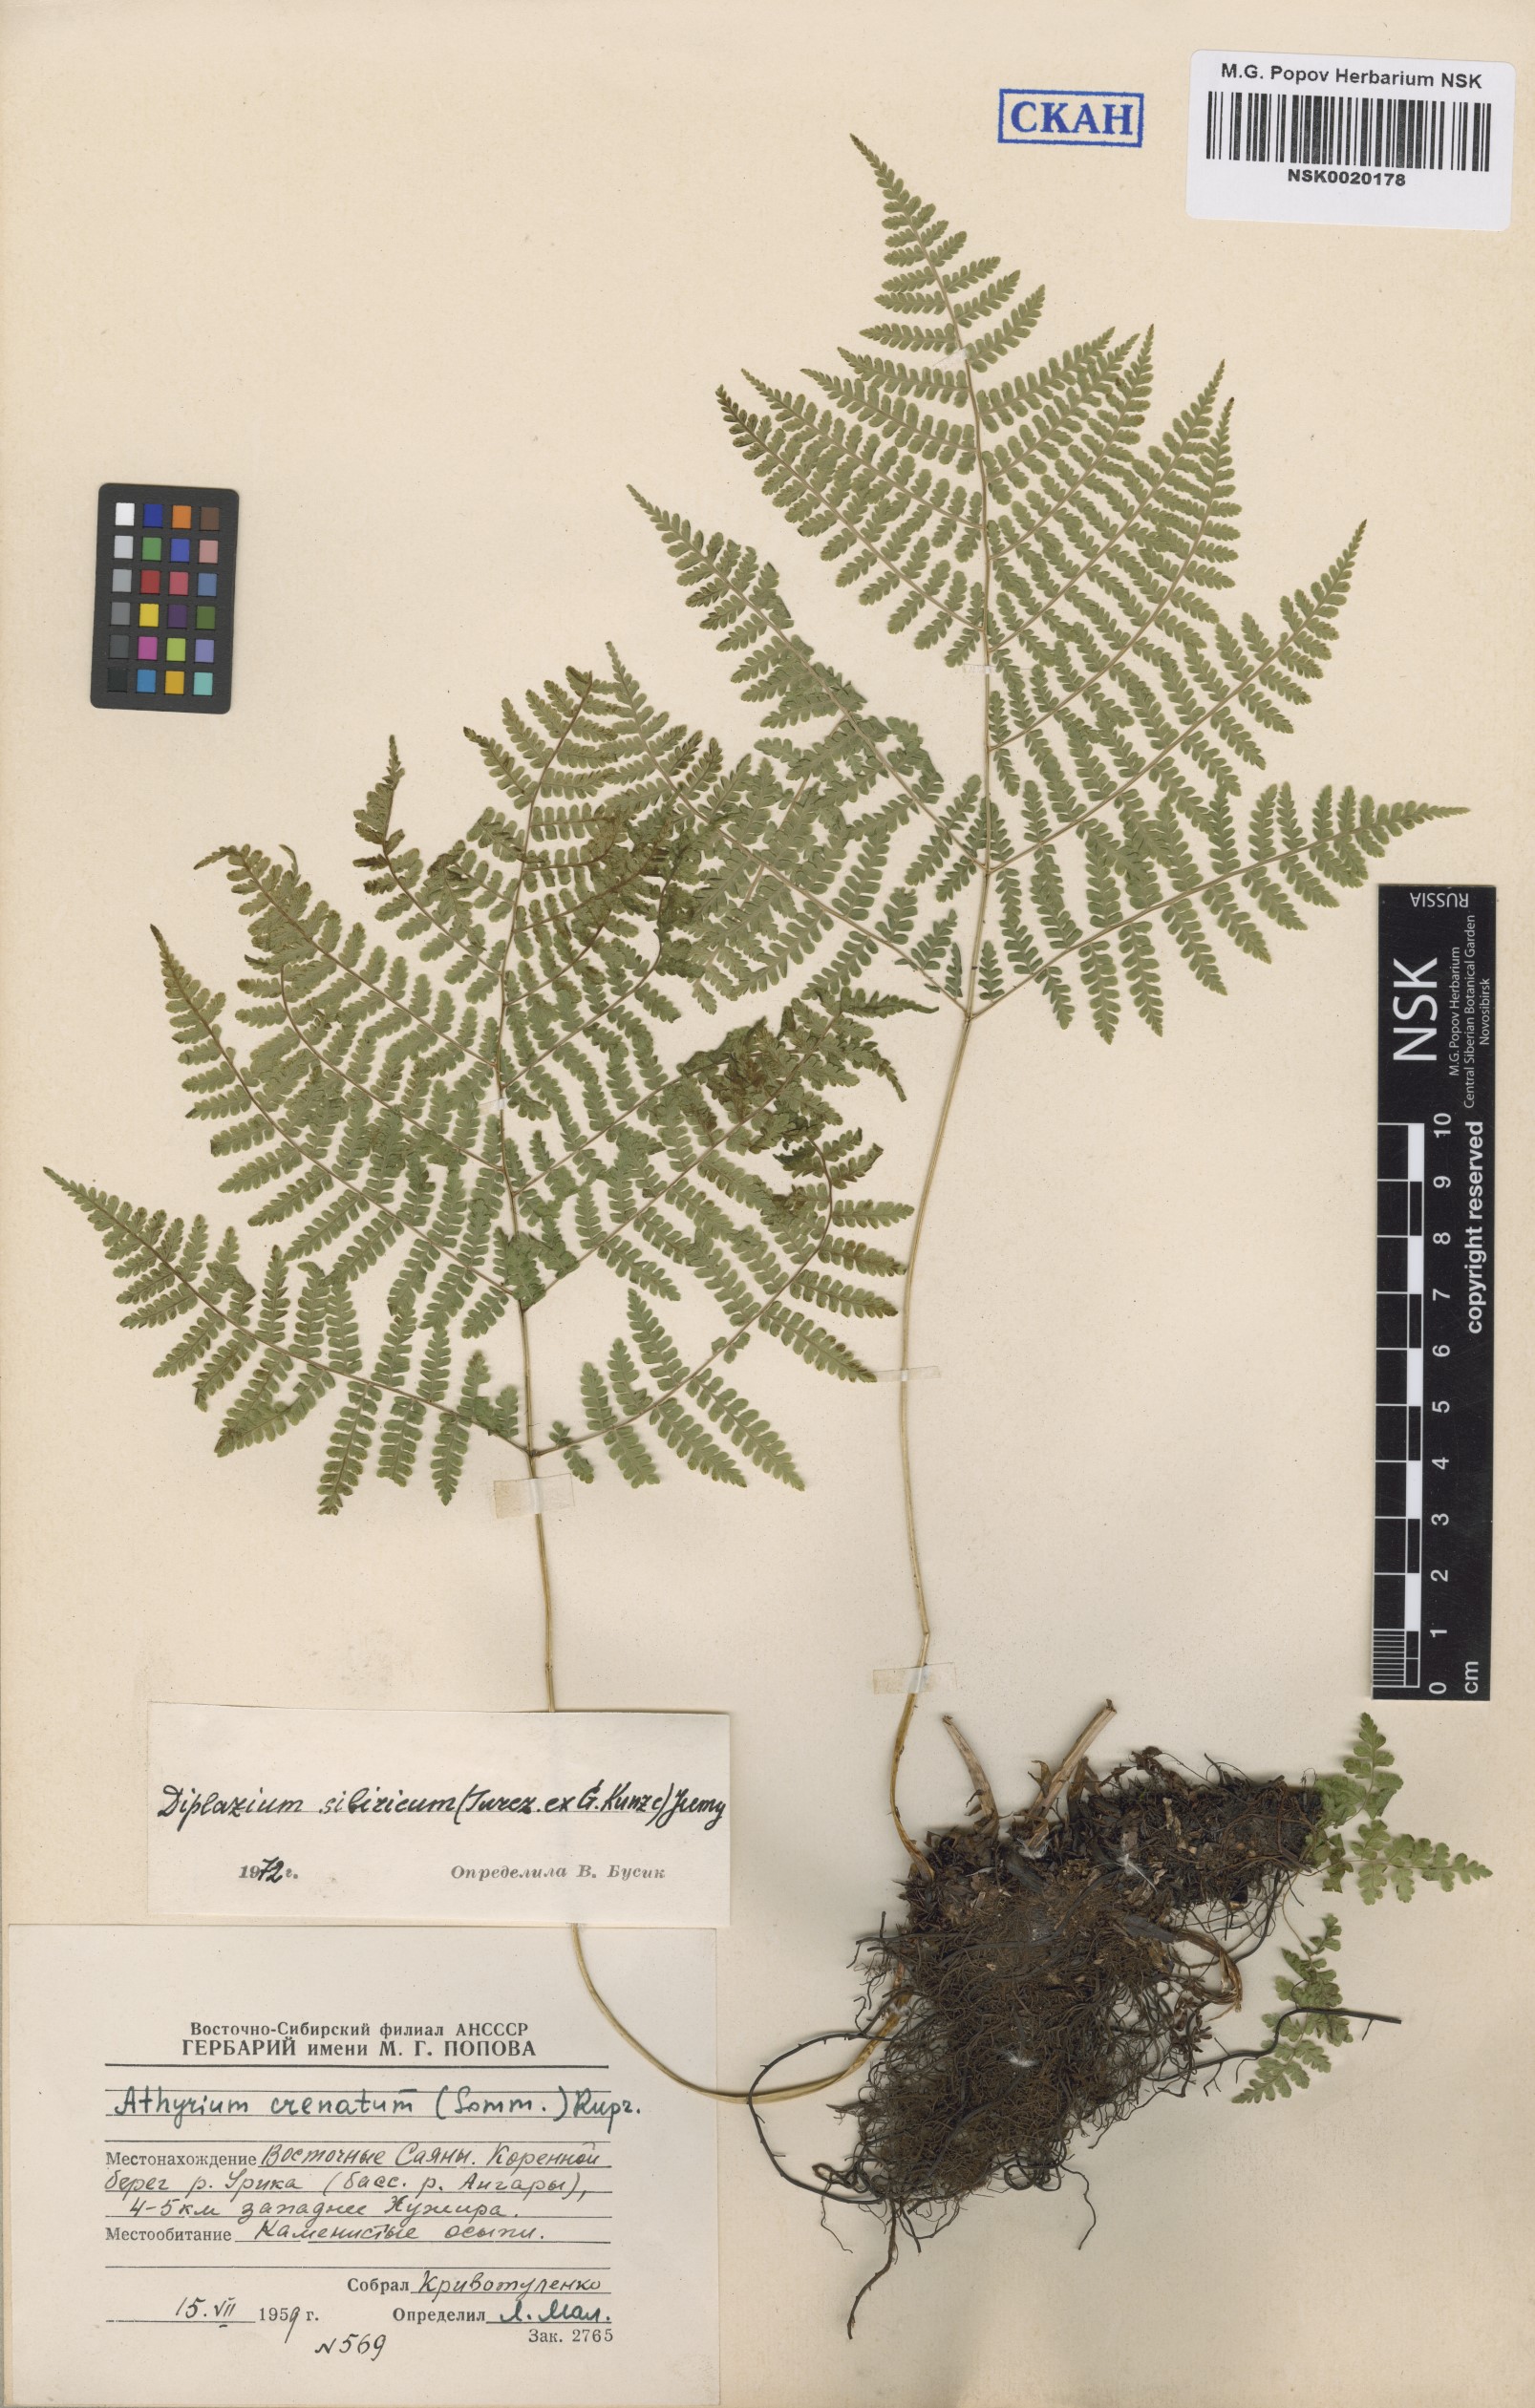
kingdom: Plantae
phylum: Tracheophyta
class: Polypodiopsida
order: Polypodiales
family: Athyriaceae
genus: Diplazium
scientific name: Diplazium sibiricum
